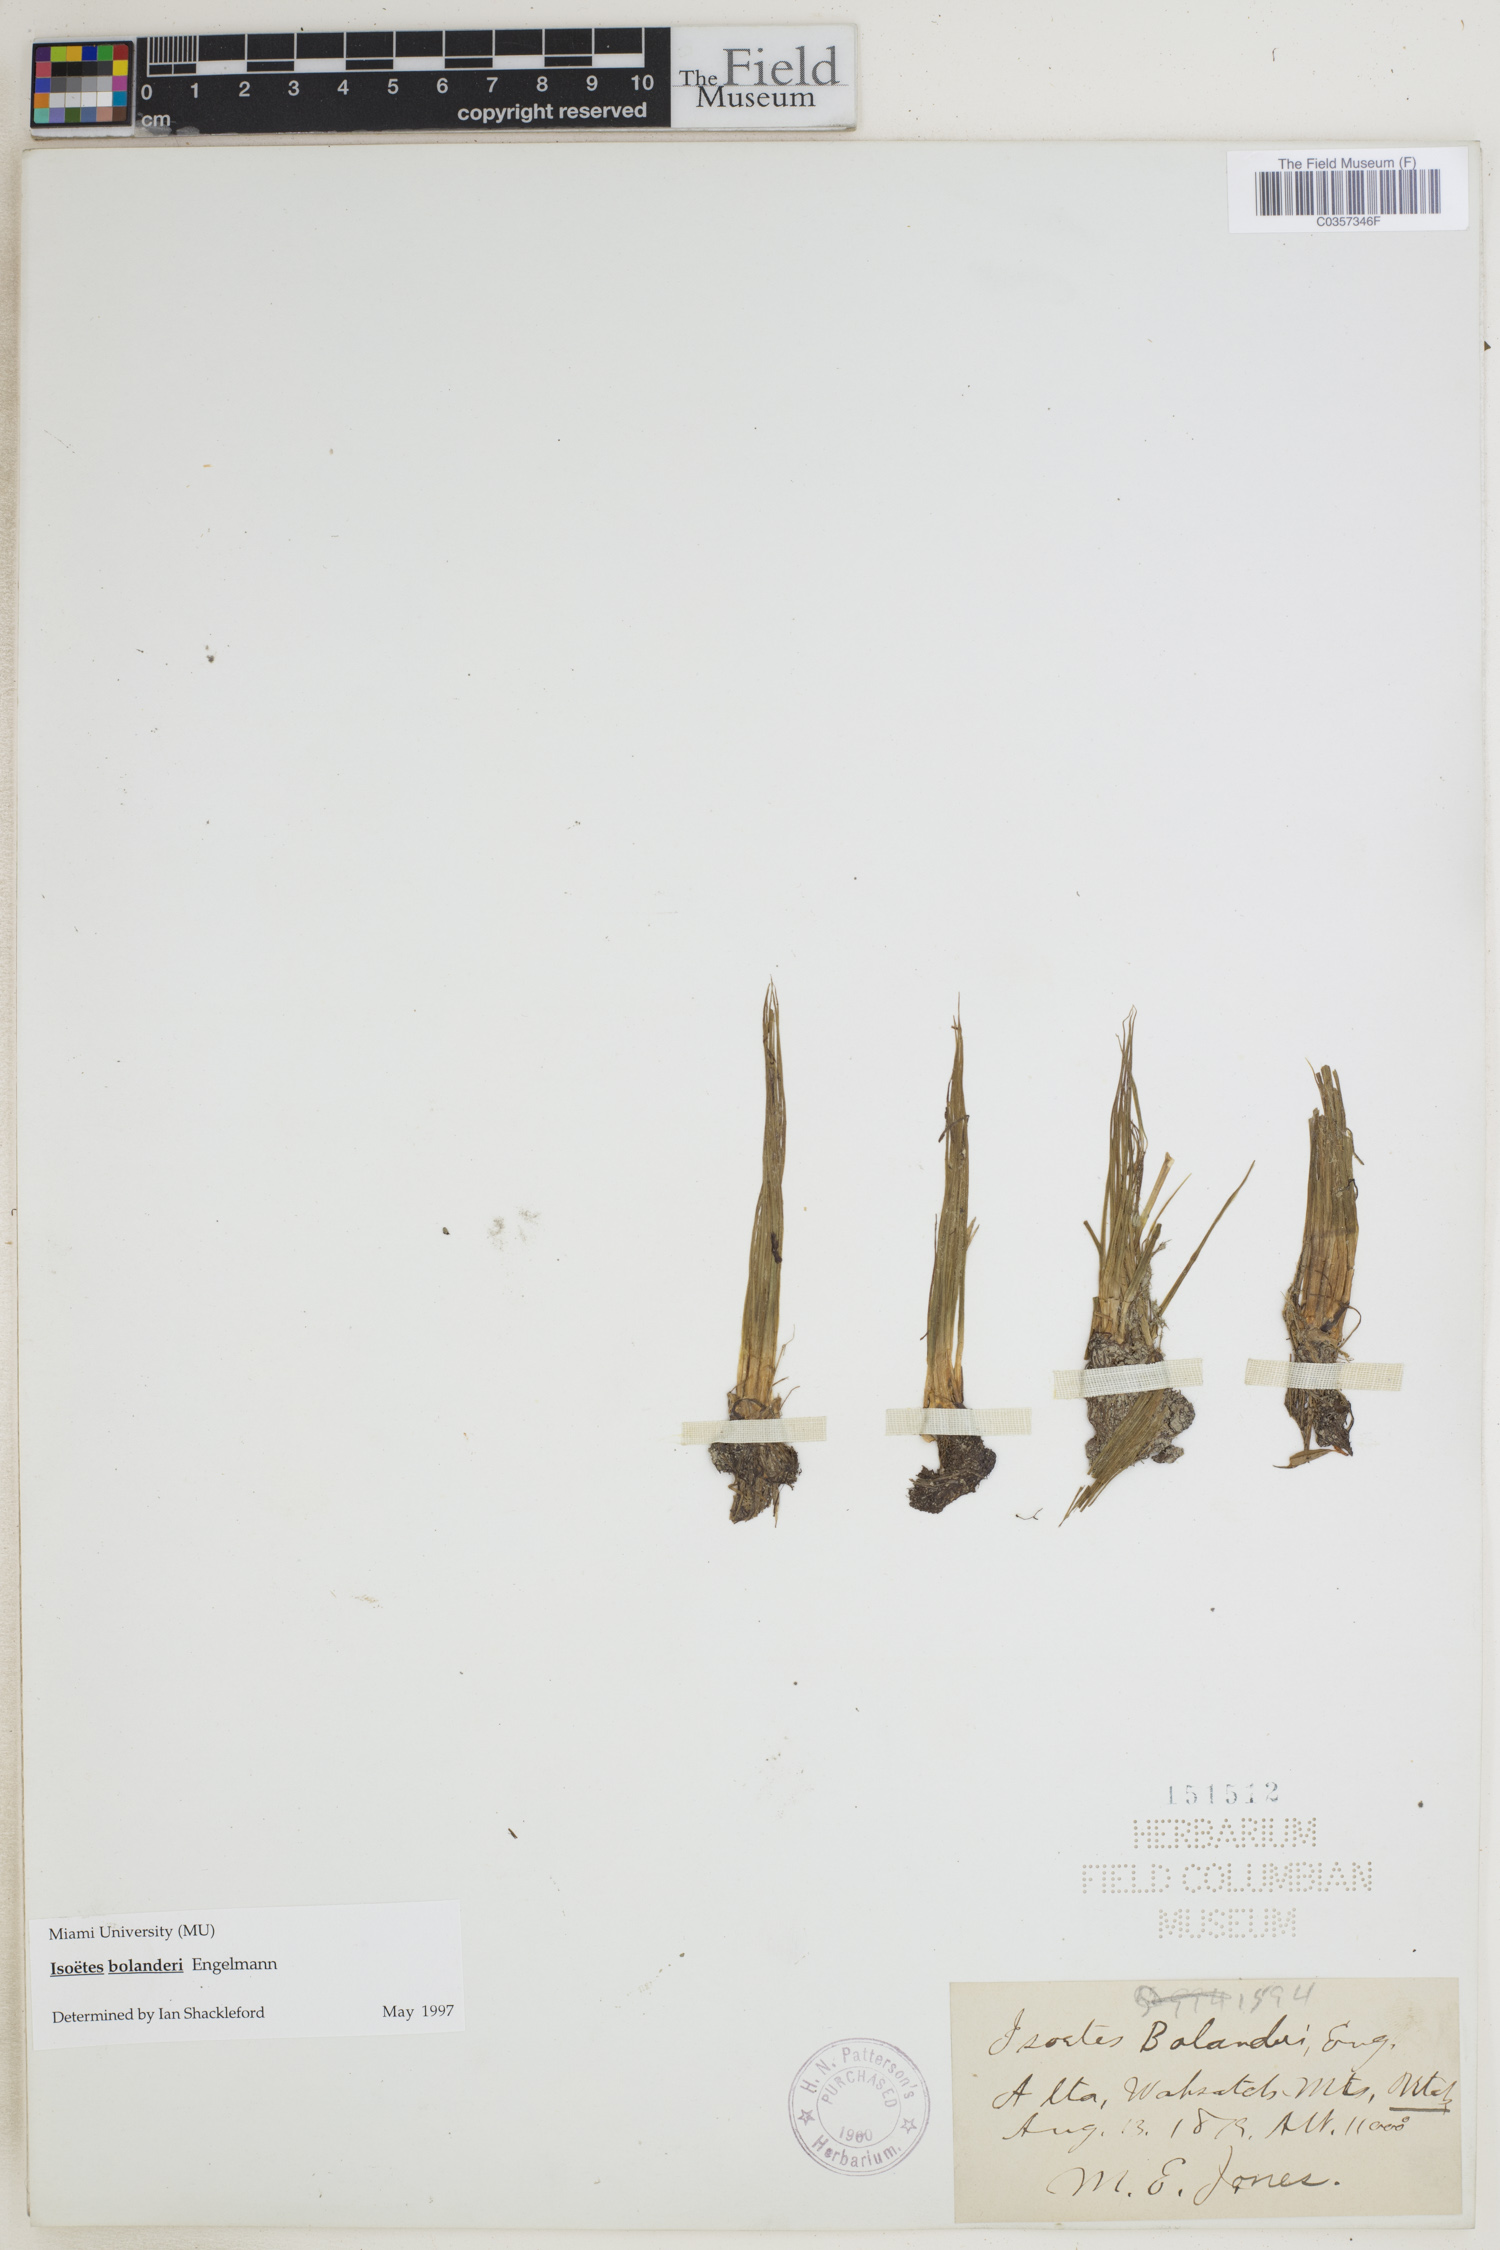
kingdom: Plantae
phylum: Tracheophyta
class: Lycopodiopsida
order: Isoetales
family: Isoetaceae
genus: Isoetes
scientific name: Isoetes bolanderi
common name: Bolander's quillwort
